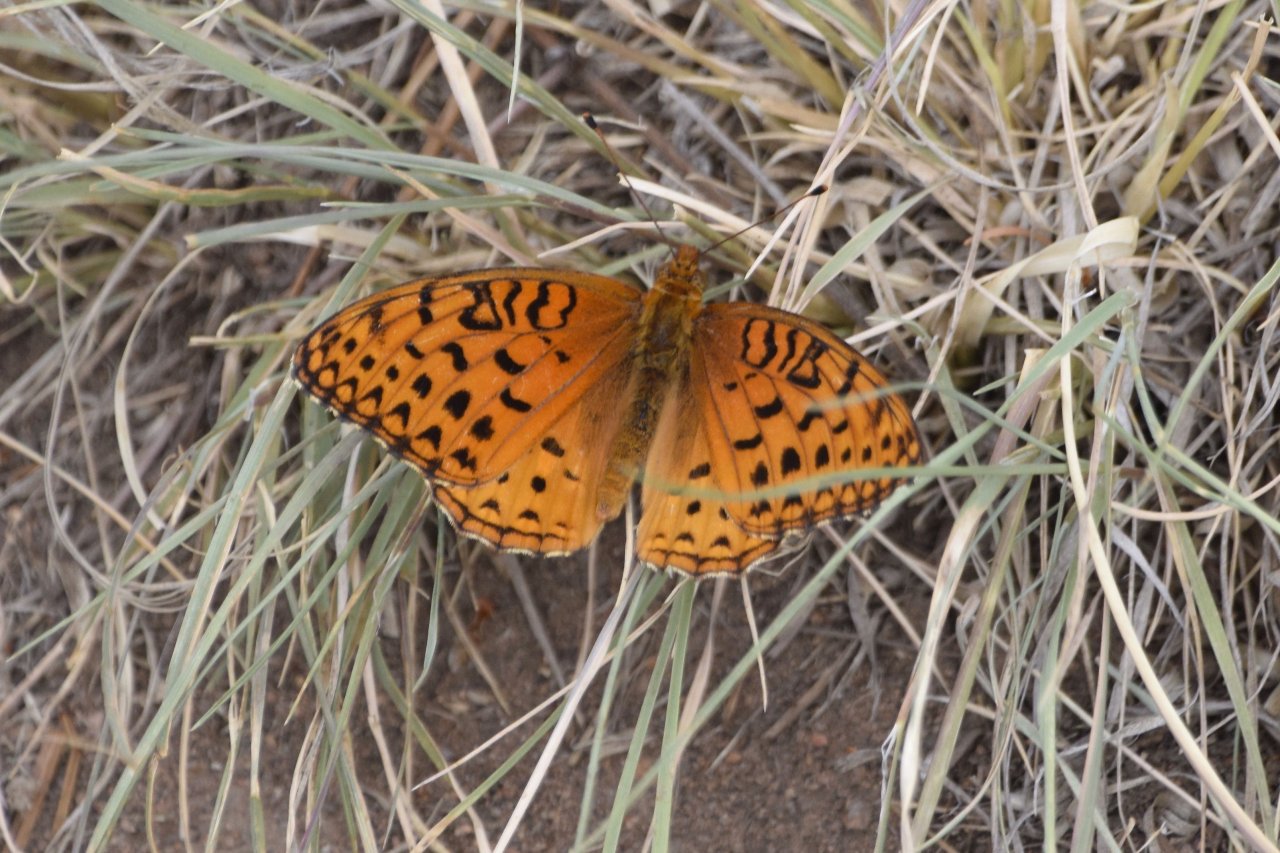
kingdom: Animalia
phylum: Arthropoda
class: Insecta
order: Lepidoptera
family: Nymphalidae
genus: Speyeria
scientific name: Speyeria atlantis
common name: Northwestern Fritillary
